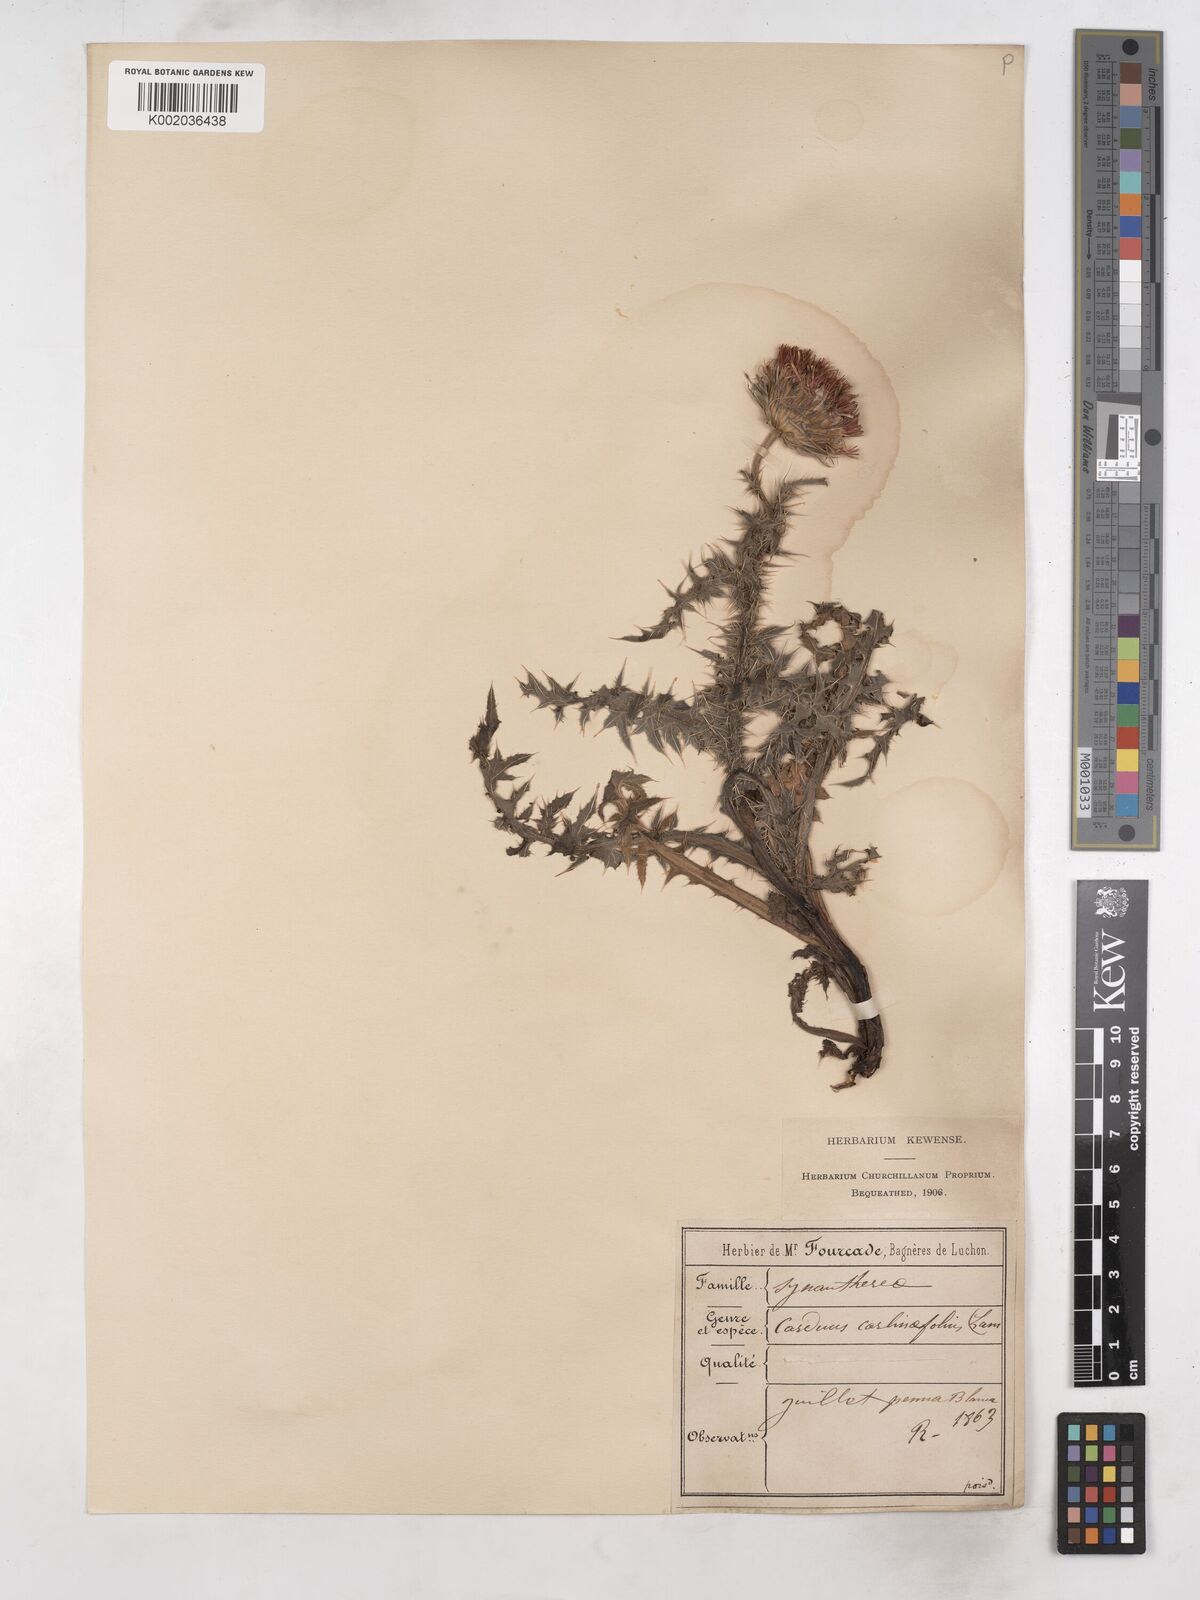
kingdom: Plantae
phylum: Tracheophyta
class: Magnoliopsida
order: Asterales
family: Asteraceae
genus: Carduus
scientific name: Carduus carlinifolius
